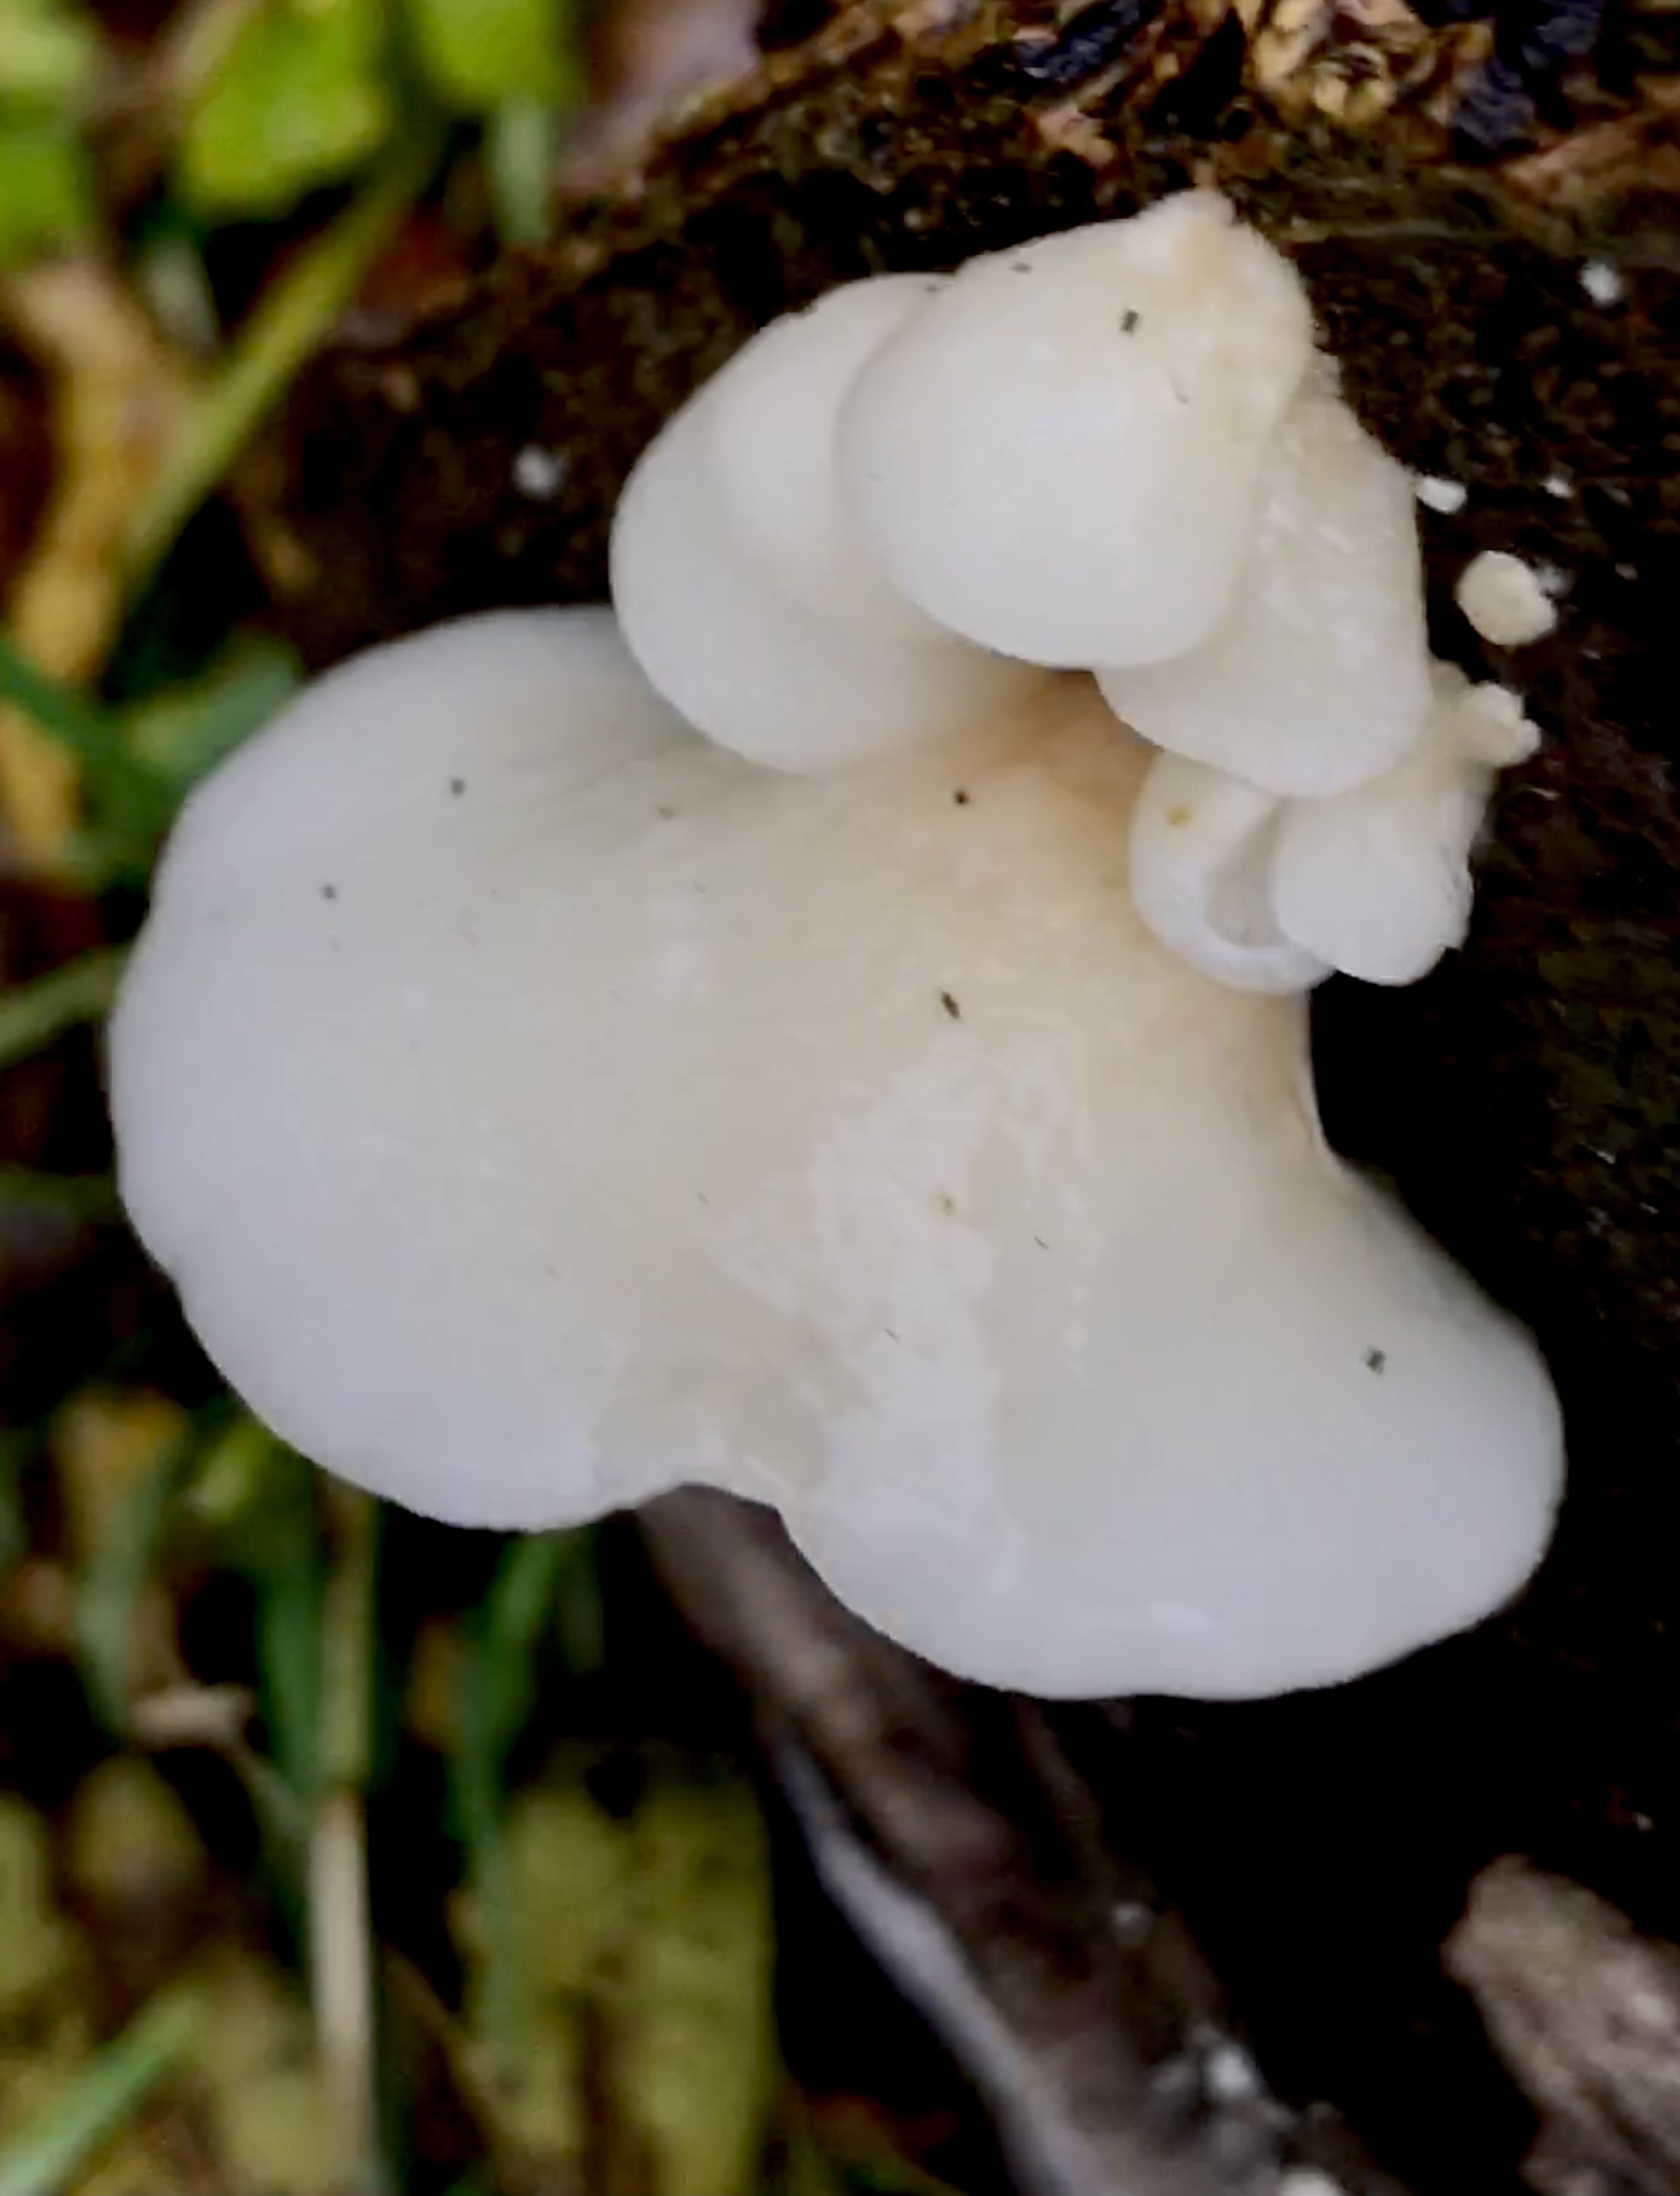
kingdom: Fungi
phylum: Basidiomycota
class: Agaricomycetes
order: Agaricales
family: Crepidotaceae
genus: Crepidotus
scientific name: Crepidotus mollis
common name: blød muslingesvamp
